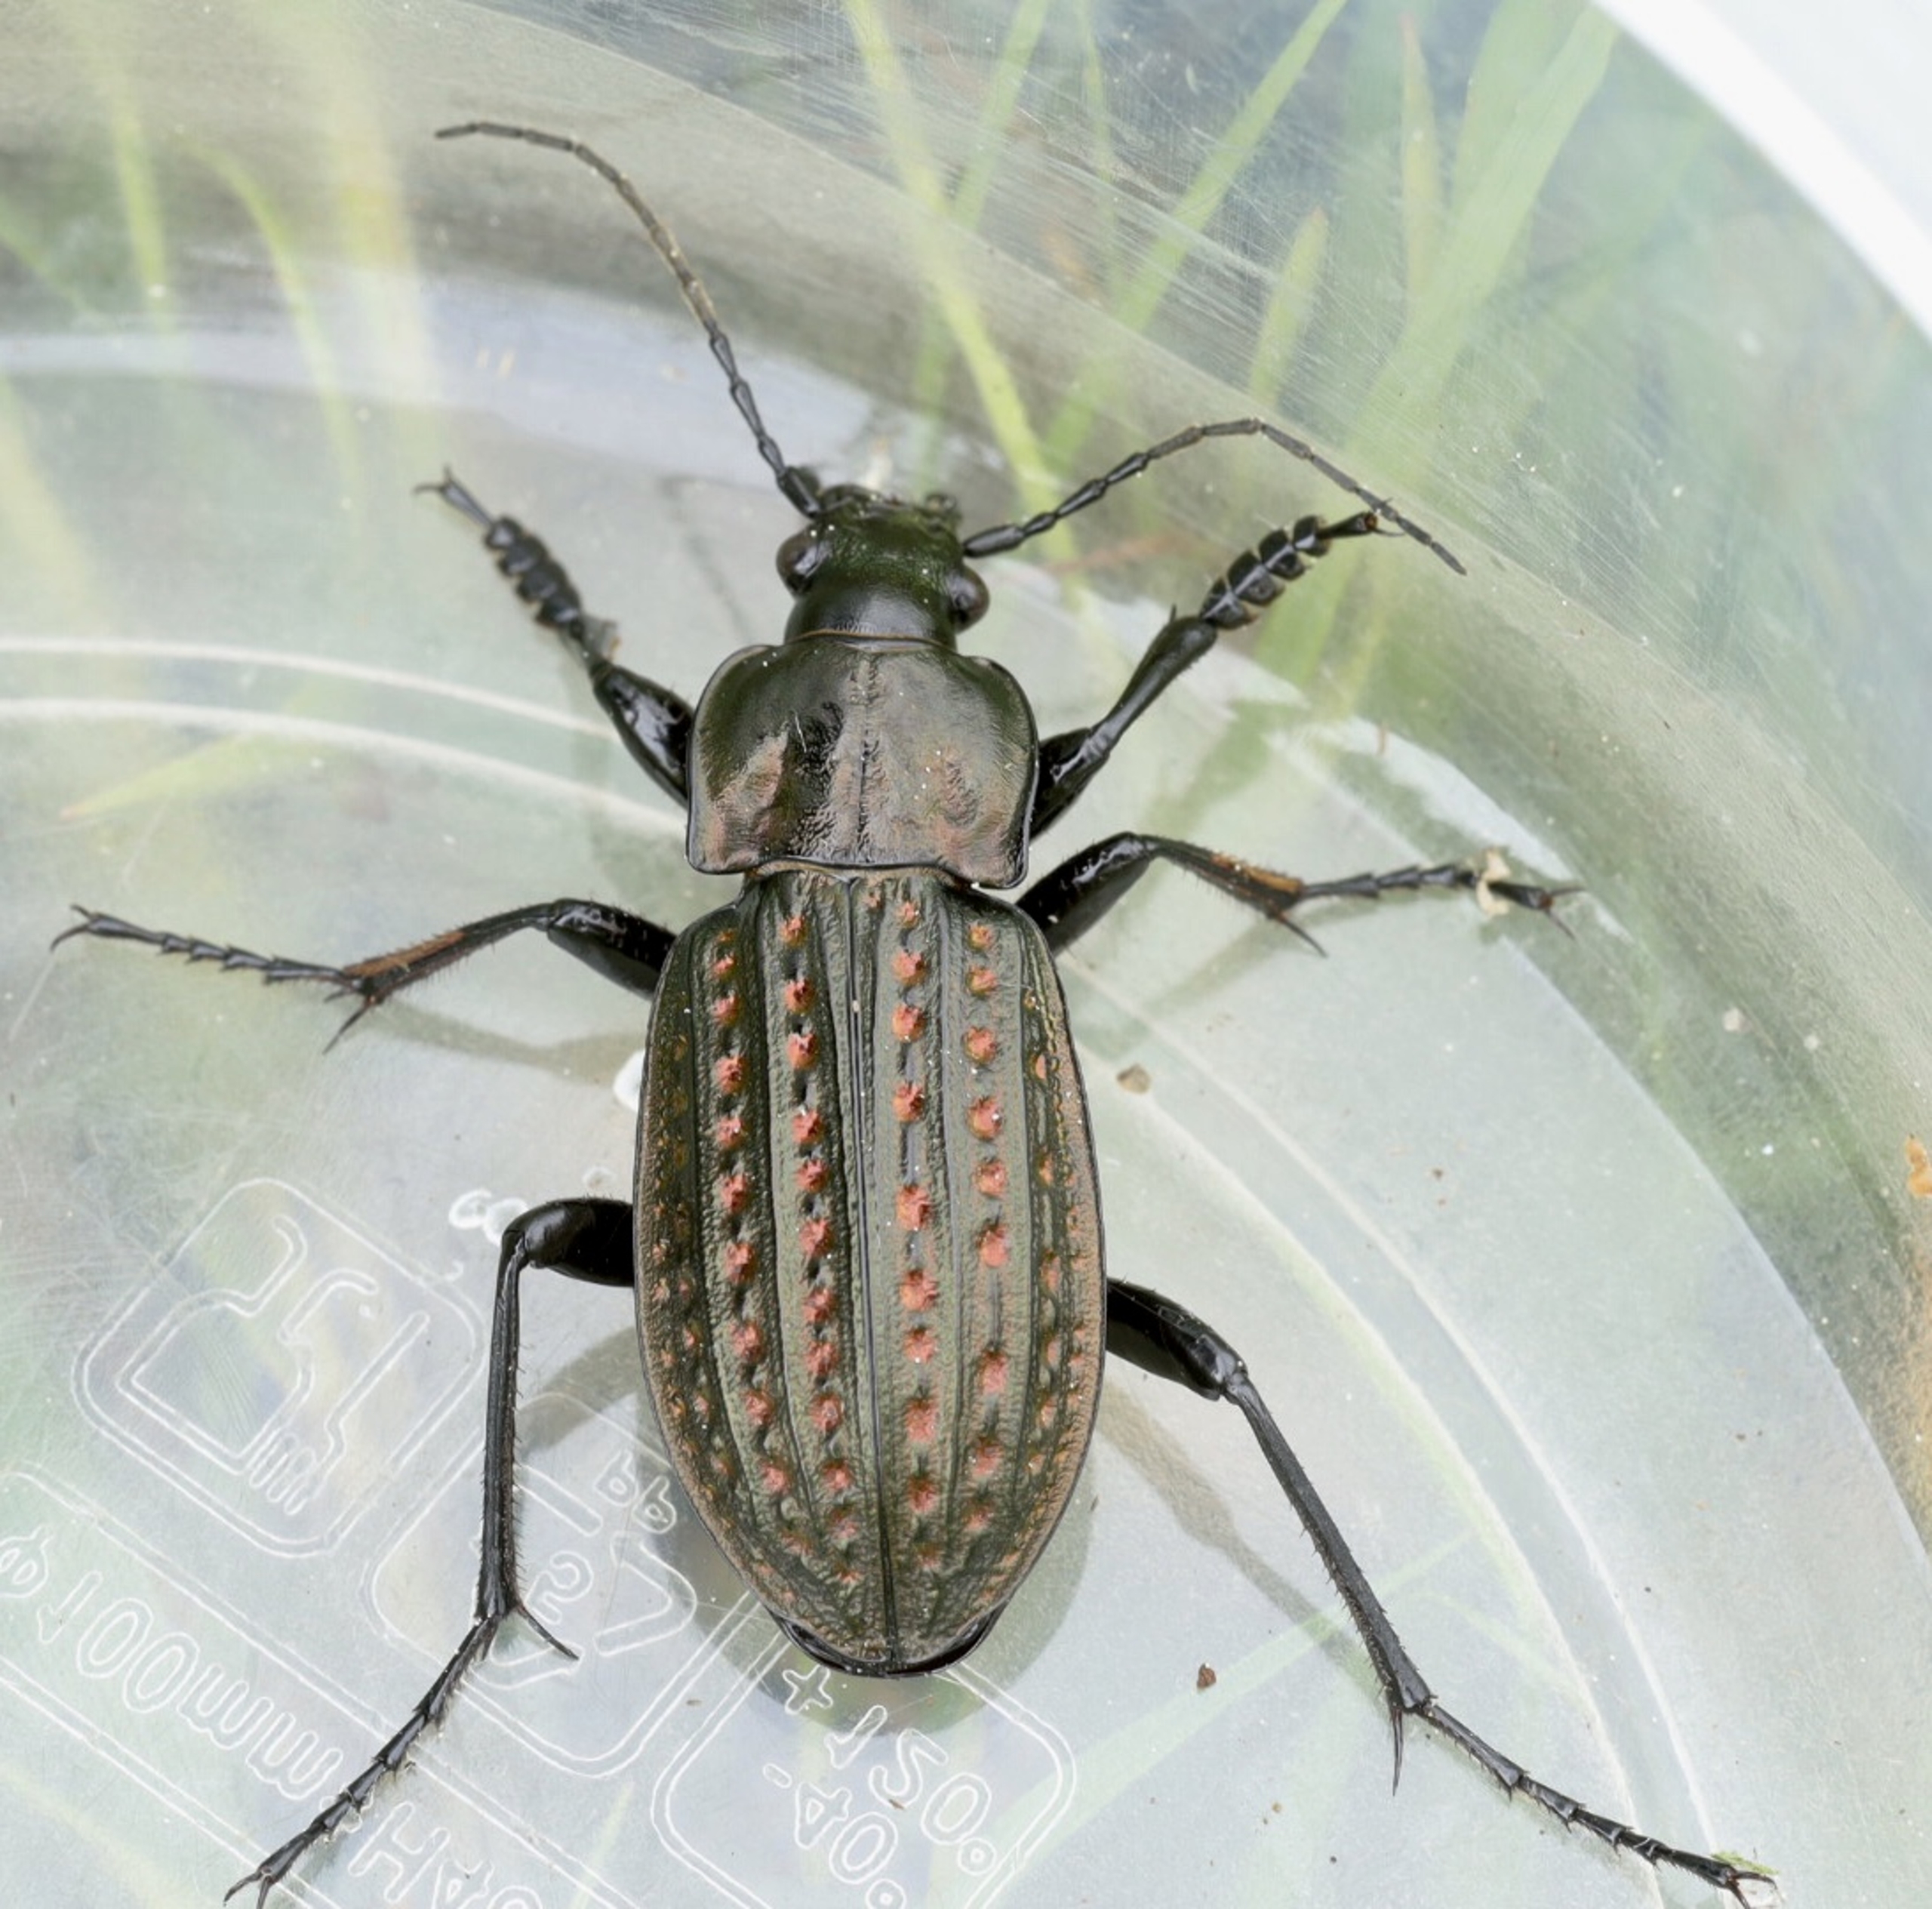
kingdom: Animalia
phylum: Arthropoda
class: Insecta
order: Coleoptera
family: Carabidae
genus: Carabus
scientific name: Carabus clatratus
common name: Dyndløber
